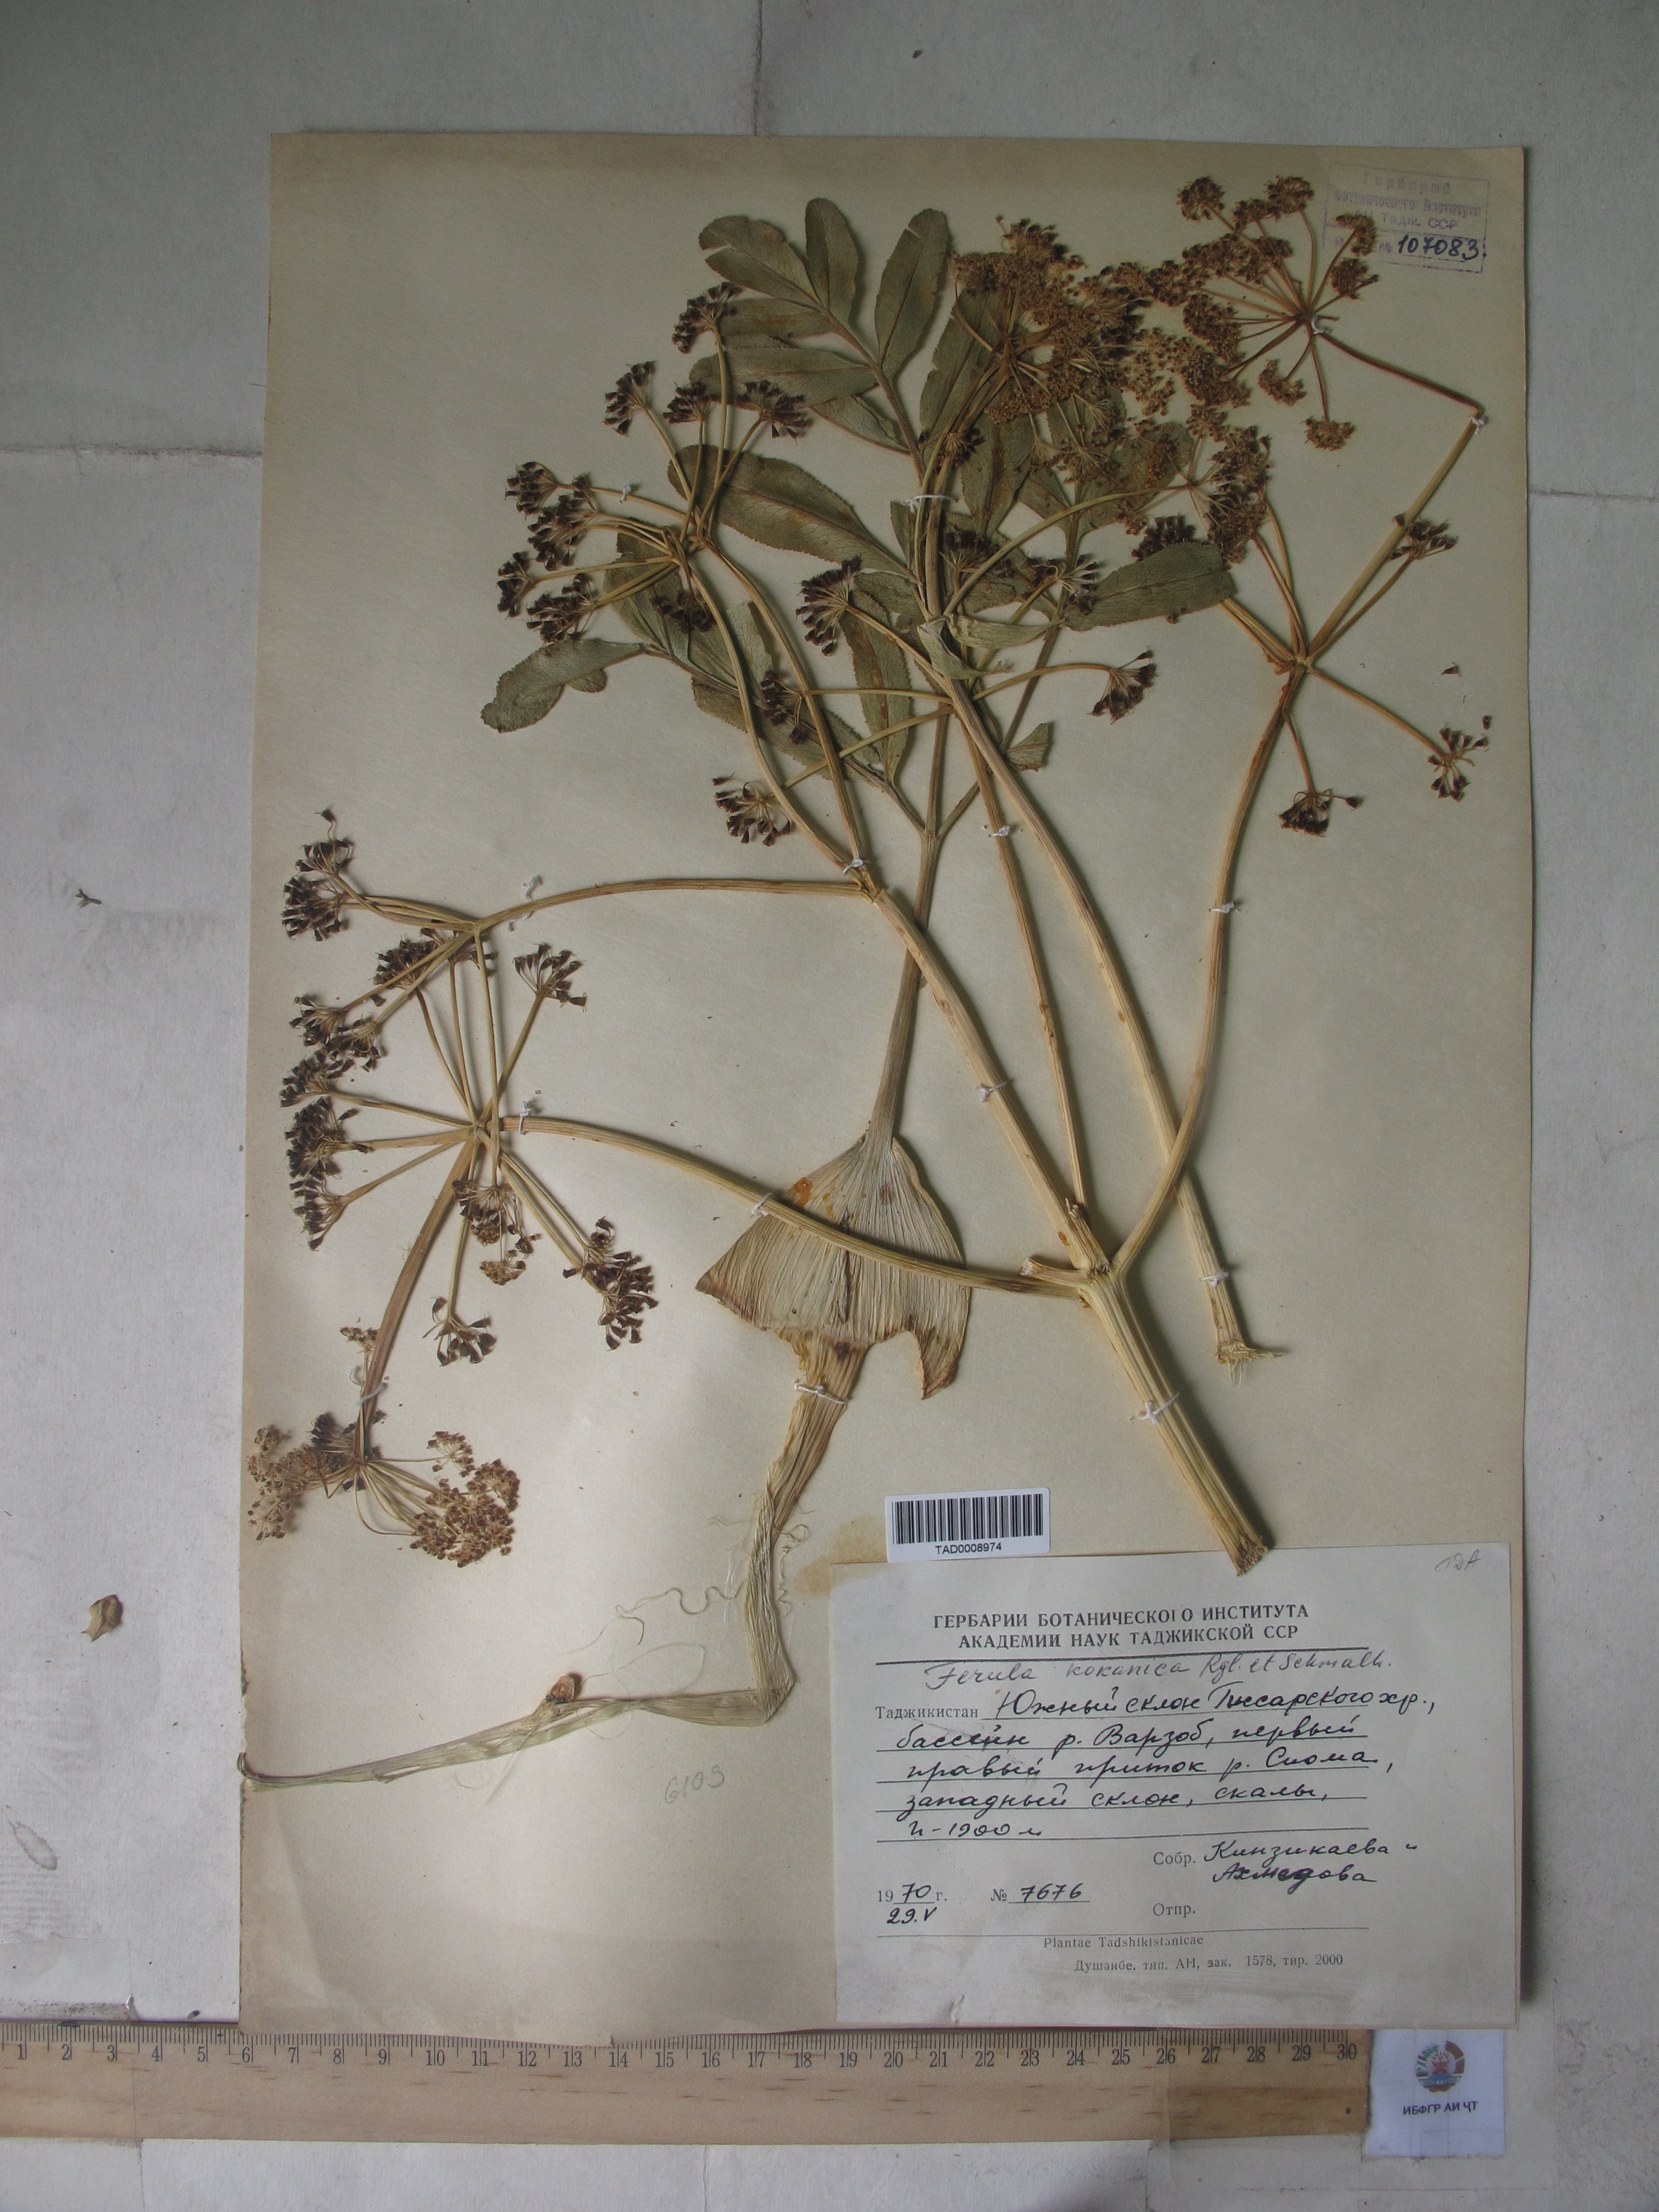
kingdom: Plantae
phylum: Tracheophyta
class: Magnoliopsida
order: Apiales
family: Apiaceae
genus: Ferula
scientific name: Ferula kokanica
